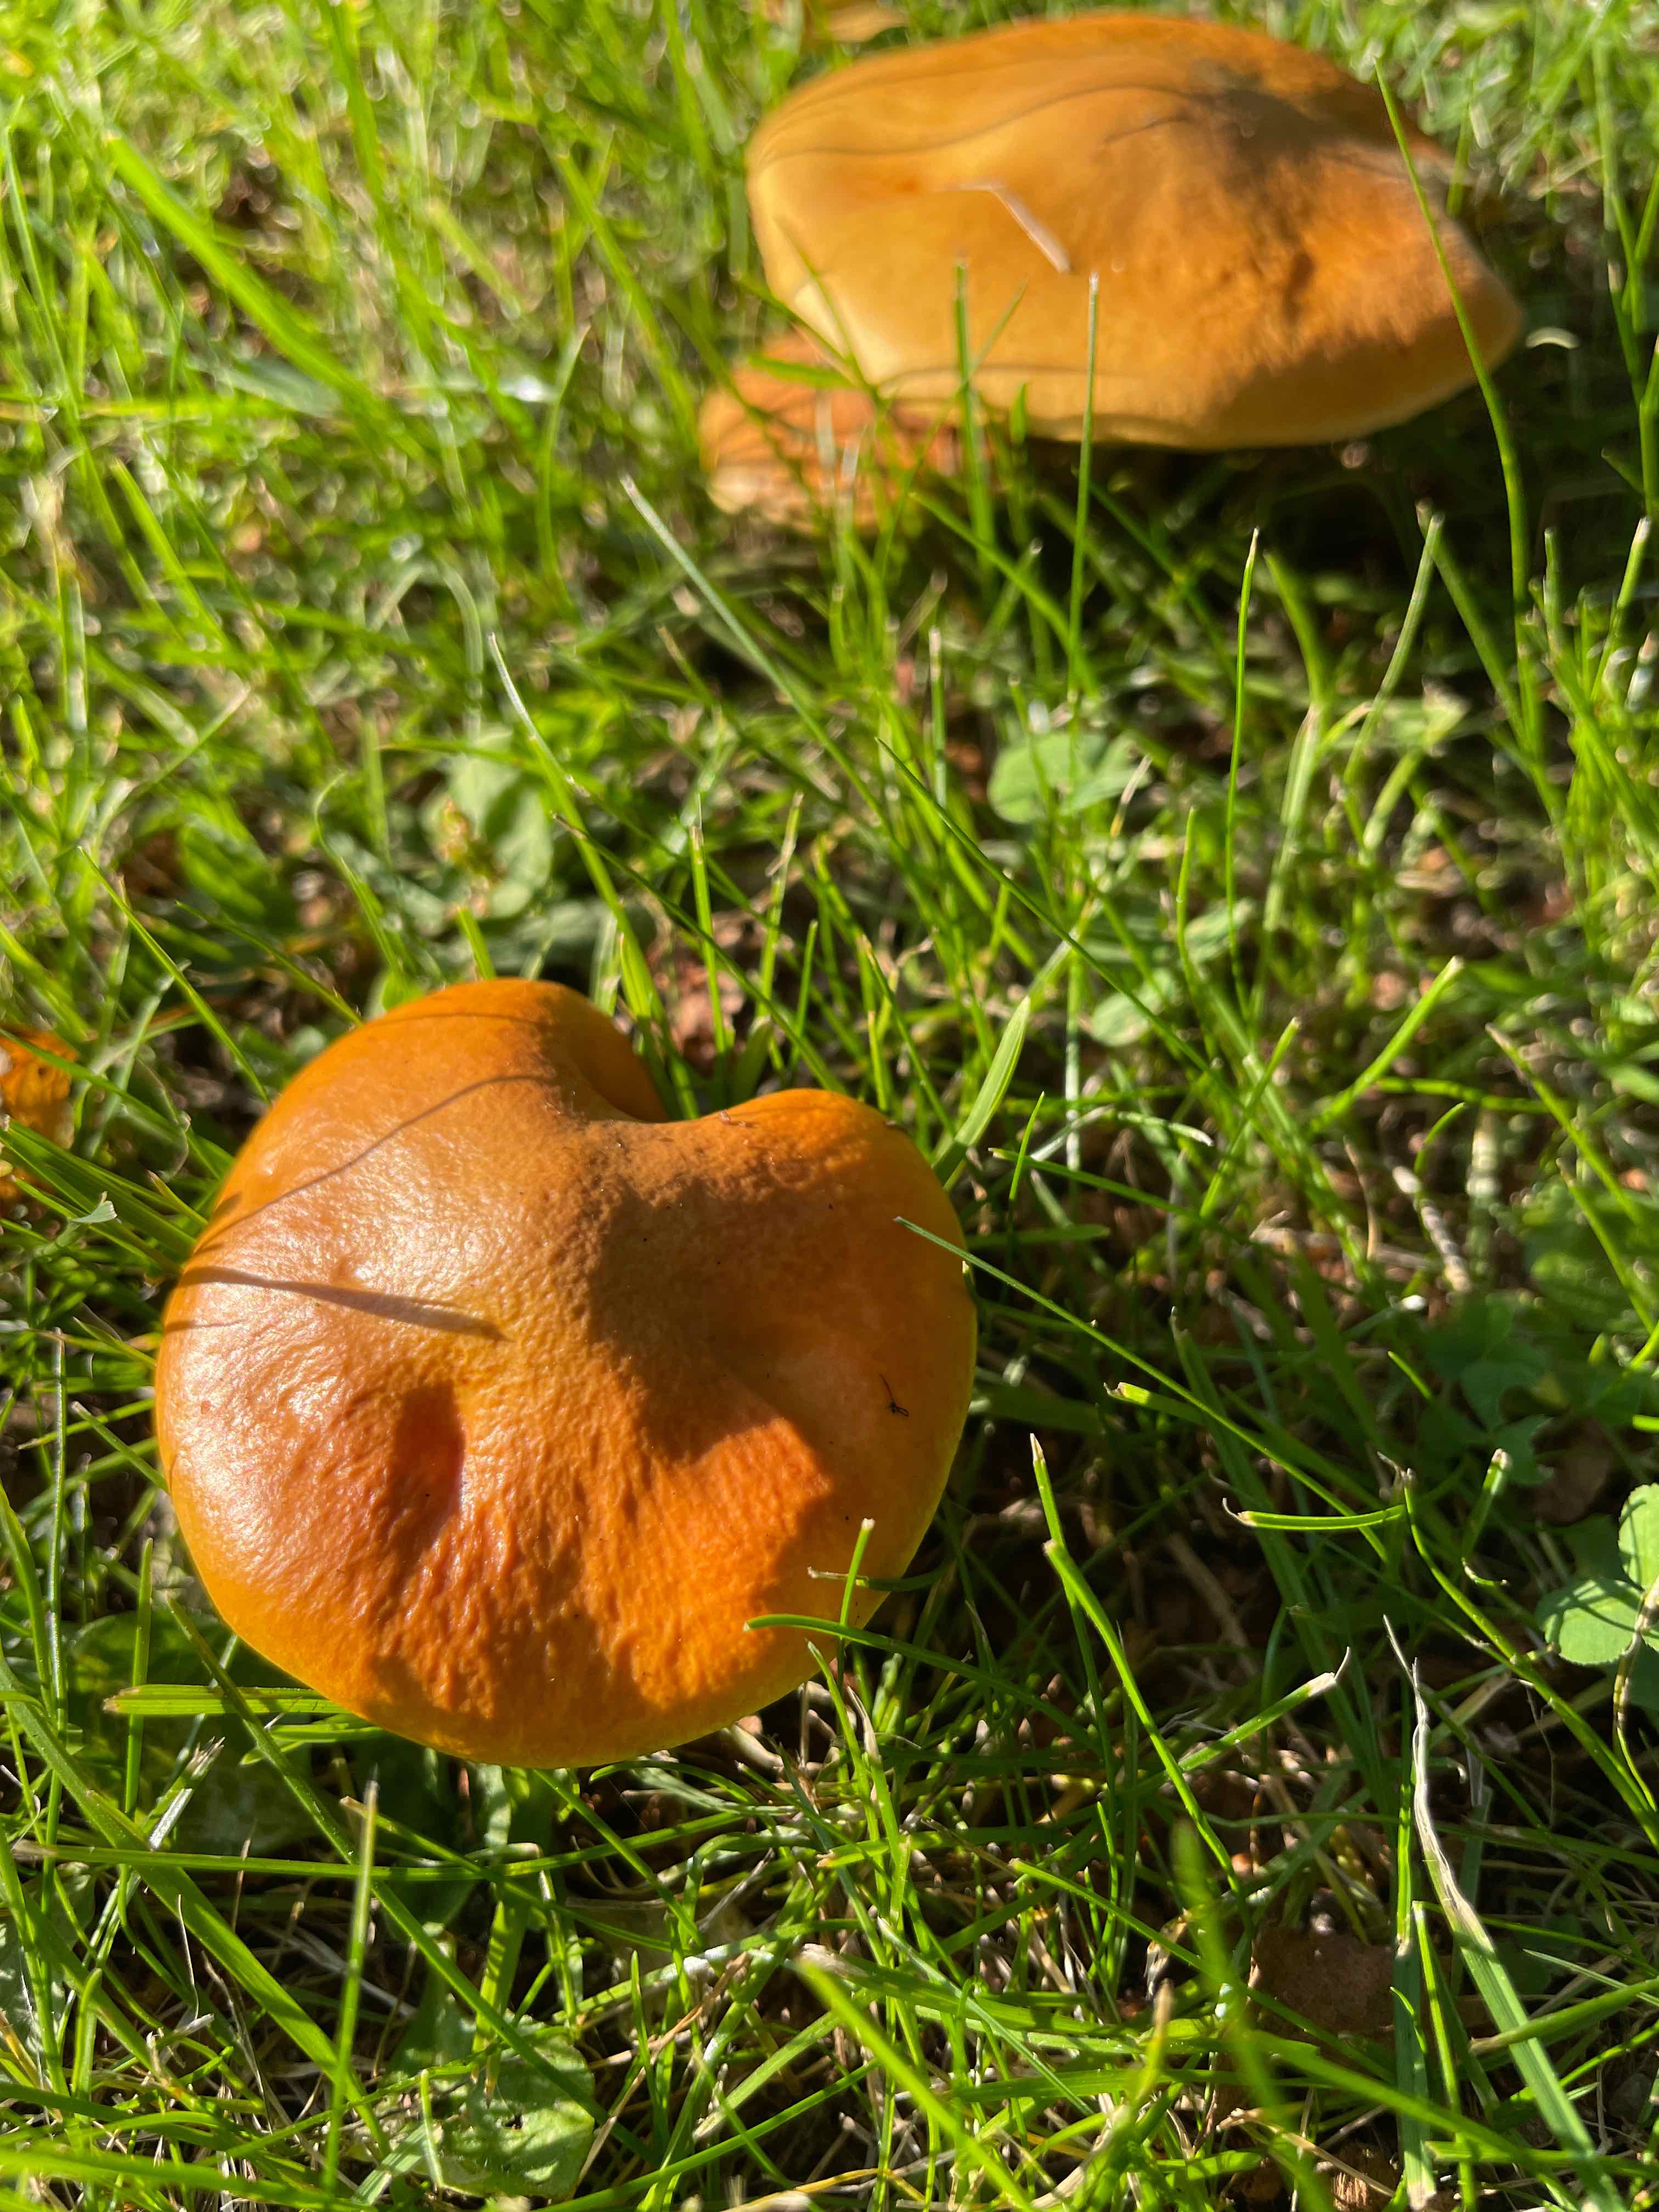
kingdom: Fungi
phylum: Basidiomycota
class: Agaricomycetes
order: Boletales
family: Suillaceae
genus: Suillus
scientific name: Suillus grevillei
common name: lærke-slimrørhat
